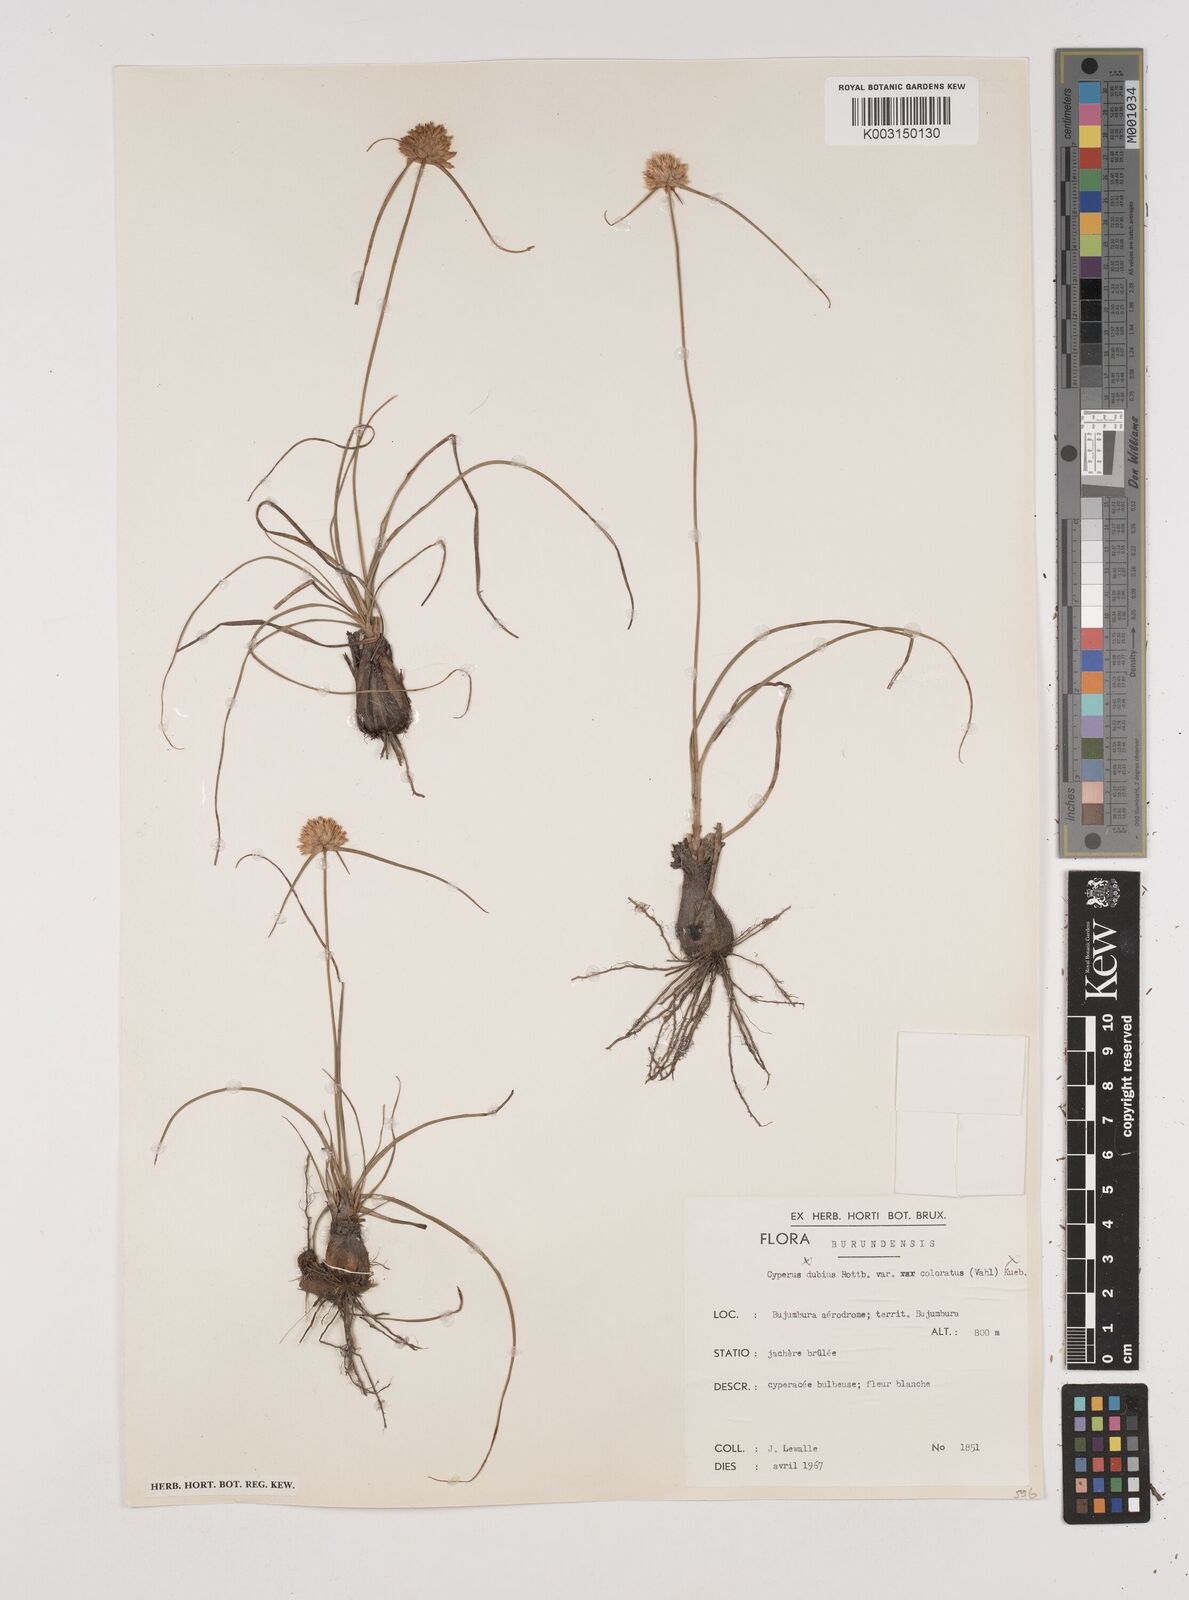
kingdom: Plantae
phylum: Tracheophyta
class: Liliopsida
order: Poales
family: Cyperaceae
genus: Cyperus
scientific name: Cyperus mollipes
